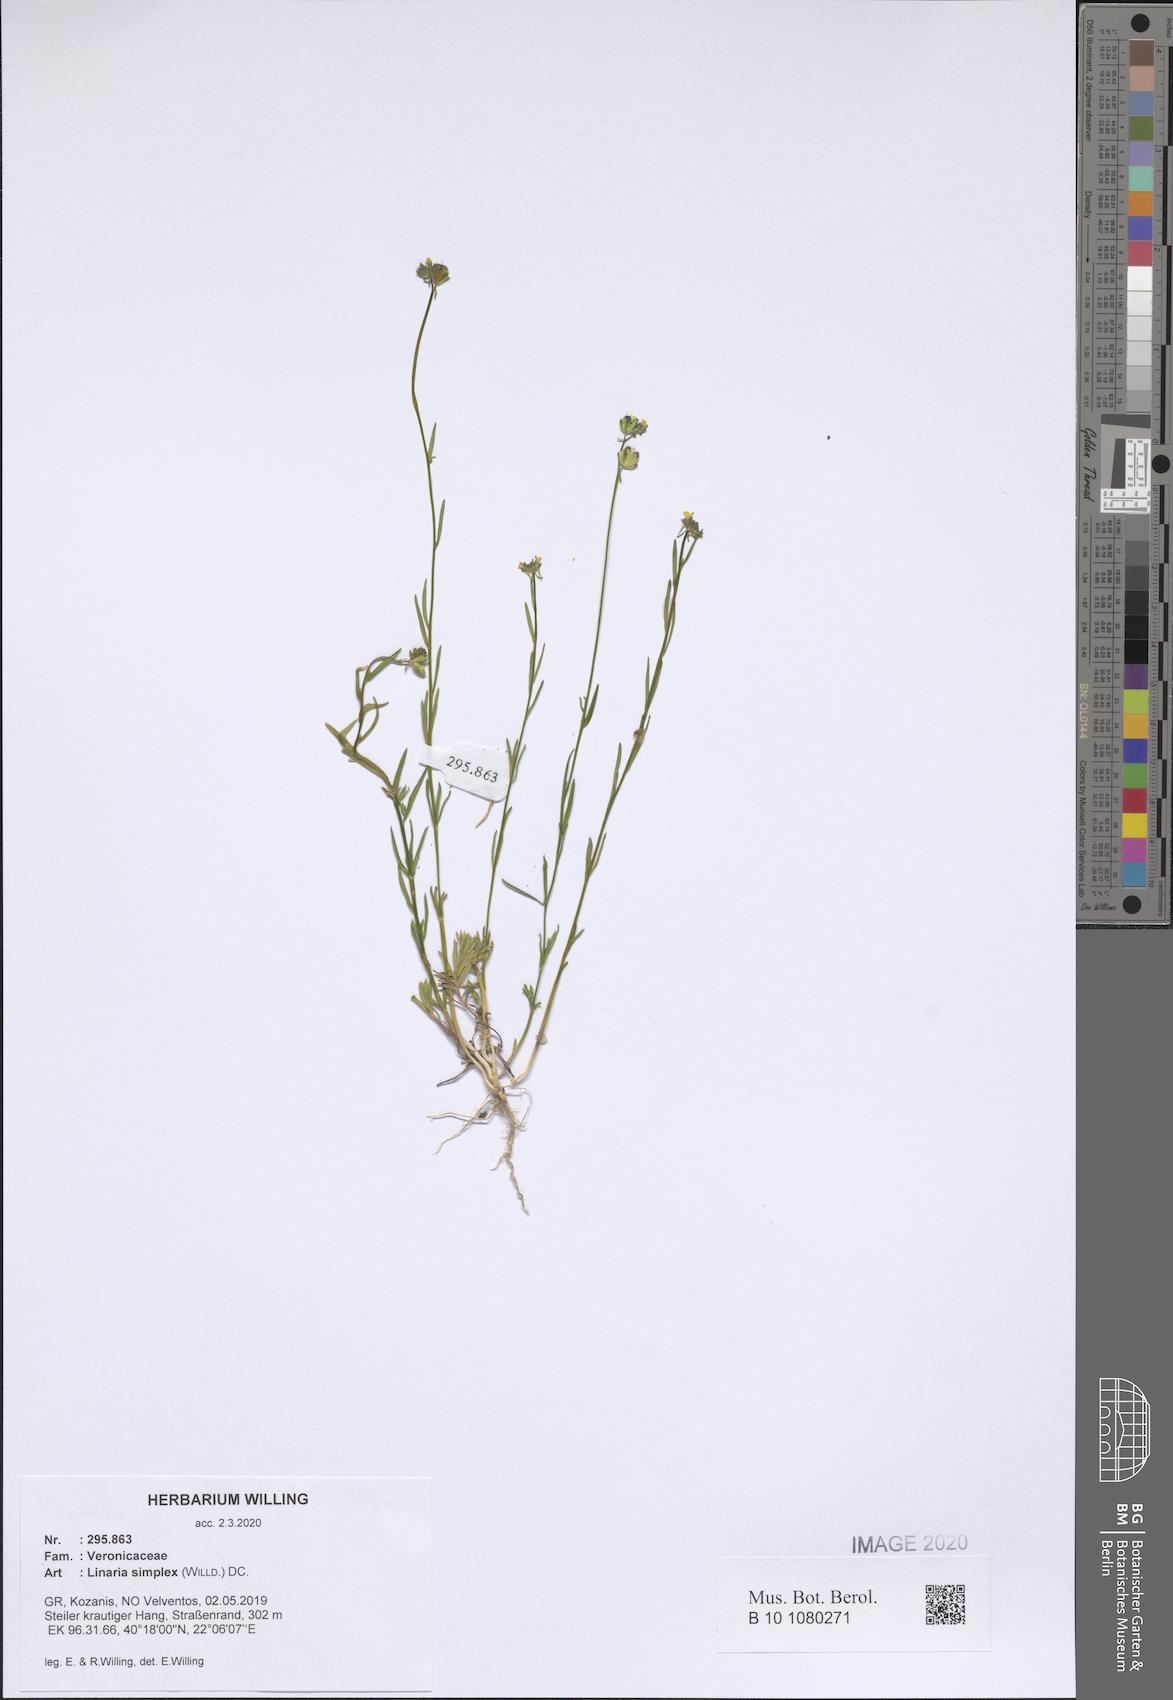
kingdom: Plantae
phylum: Tracheophyta
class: Magnoliopsida
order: Lamiales
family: Plantaginaceae
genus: Linaria
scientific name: Linaria simplex
